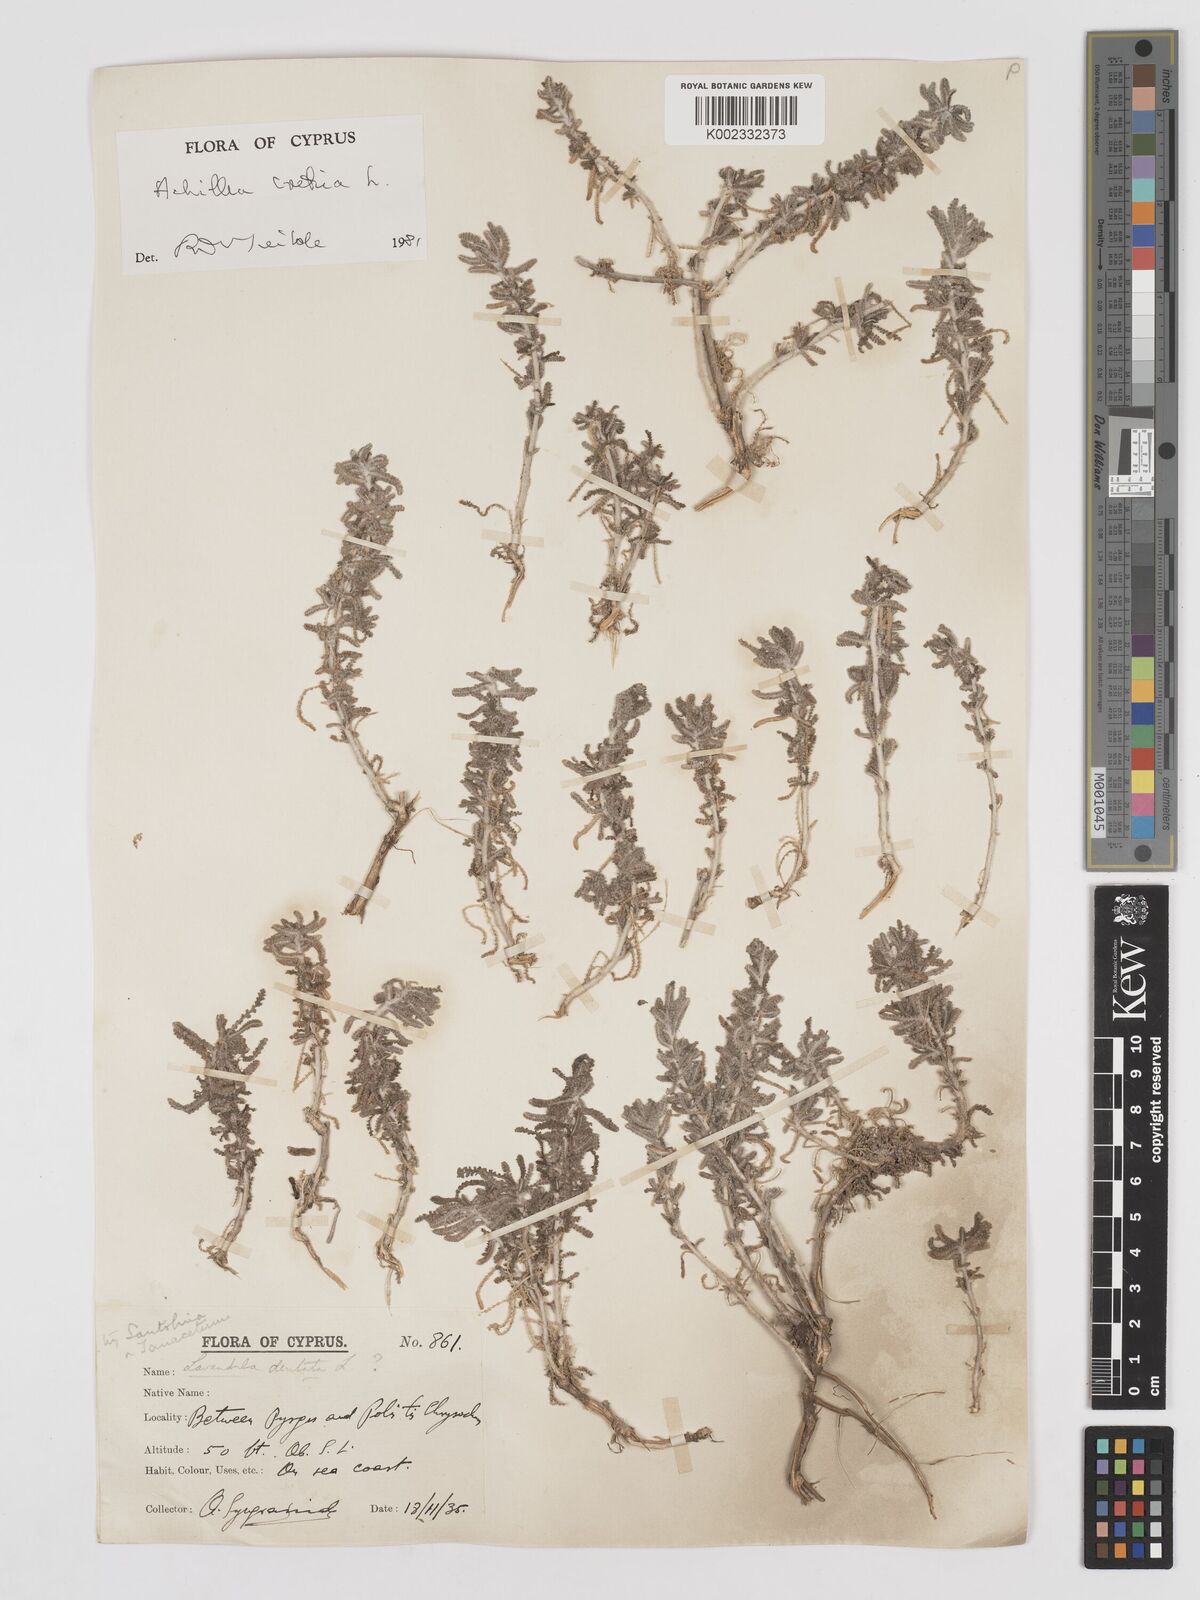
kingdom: Plantae
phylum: Tracheophyta
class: Magnoliopsida
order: Asterales
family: Asteraceae
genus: Achillea
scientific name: Achillea cretica
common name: Chamomile-leaved lavender-cotton
